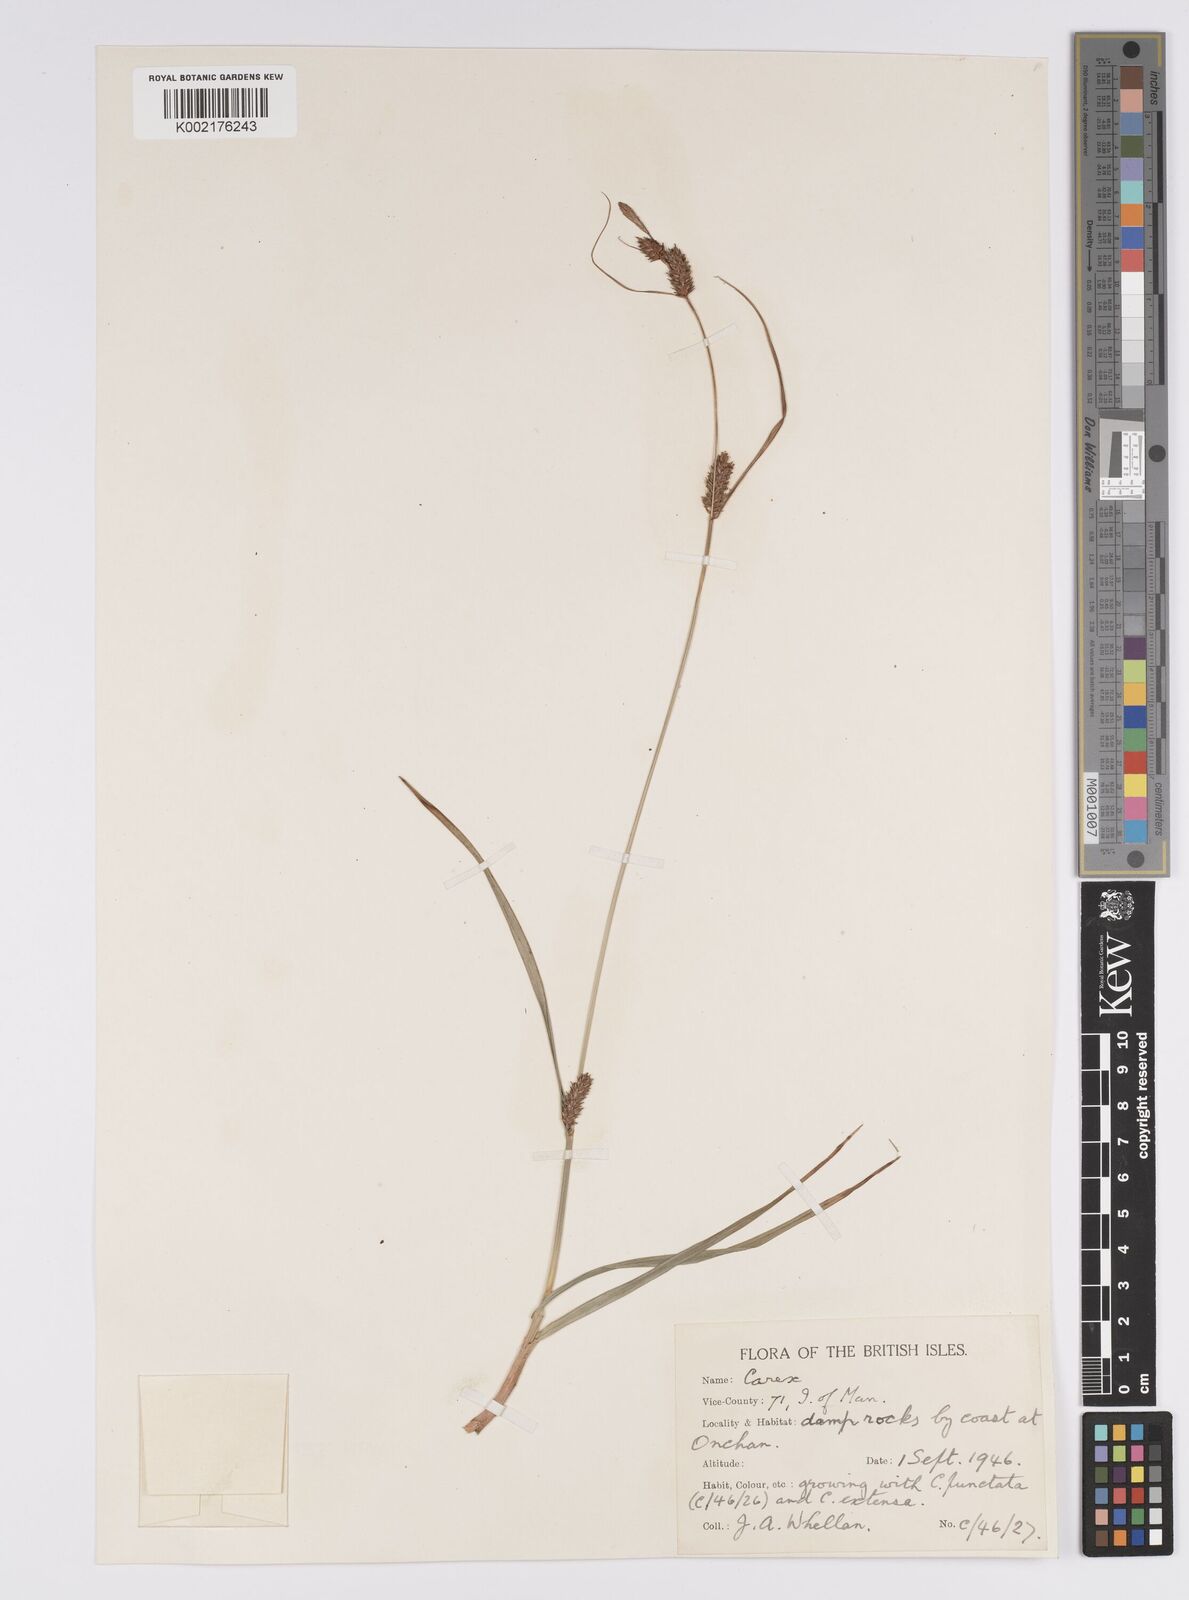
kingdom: Plantae
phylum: Tracheophyta
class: Liliopsida
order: Poales
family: Cyperaceae
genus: Carex
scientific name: Carex distans
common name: Distant sedge
